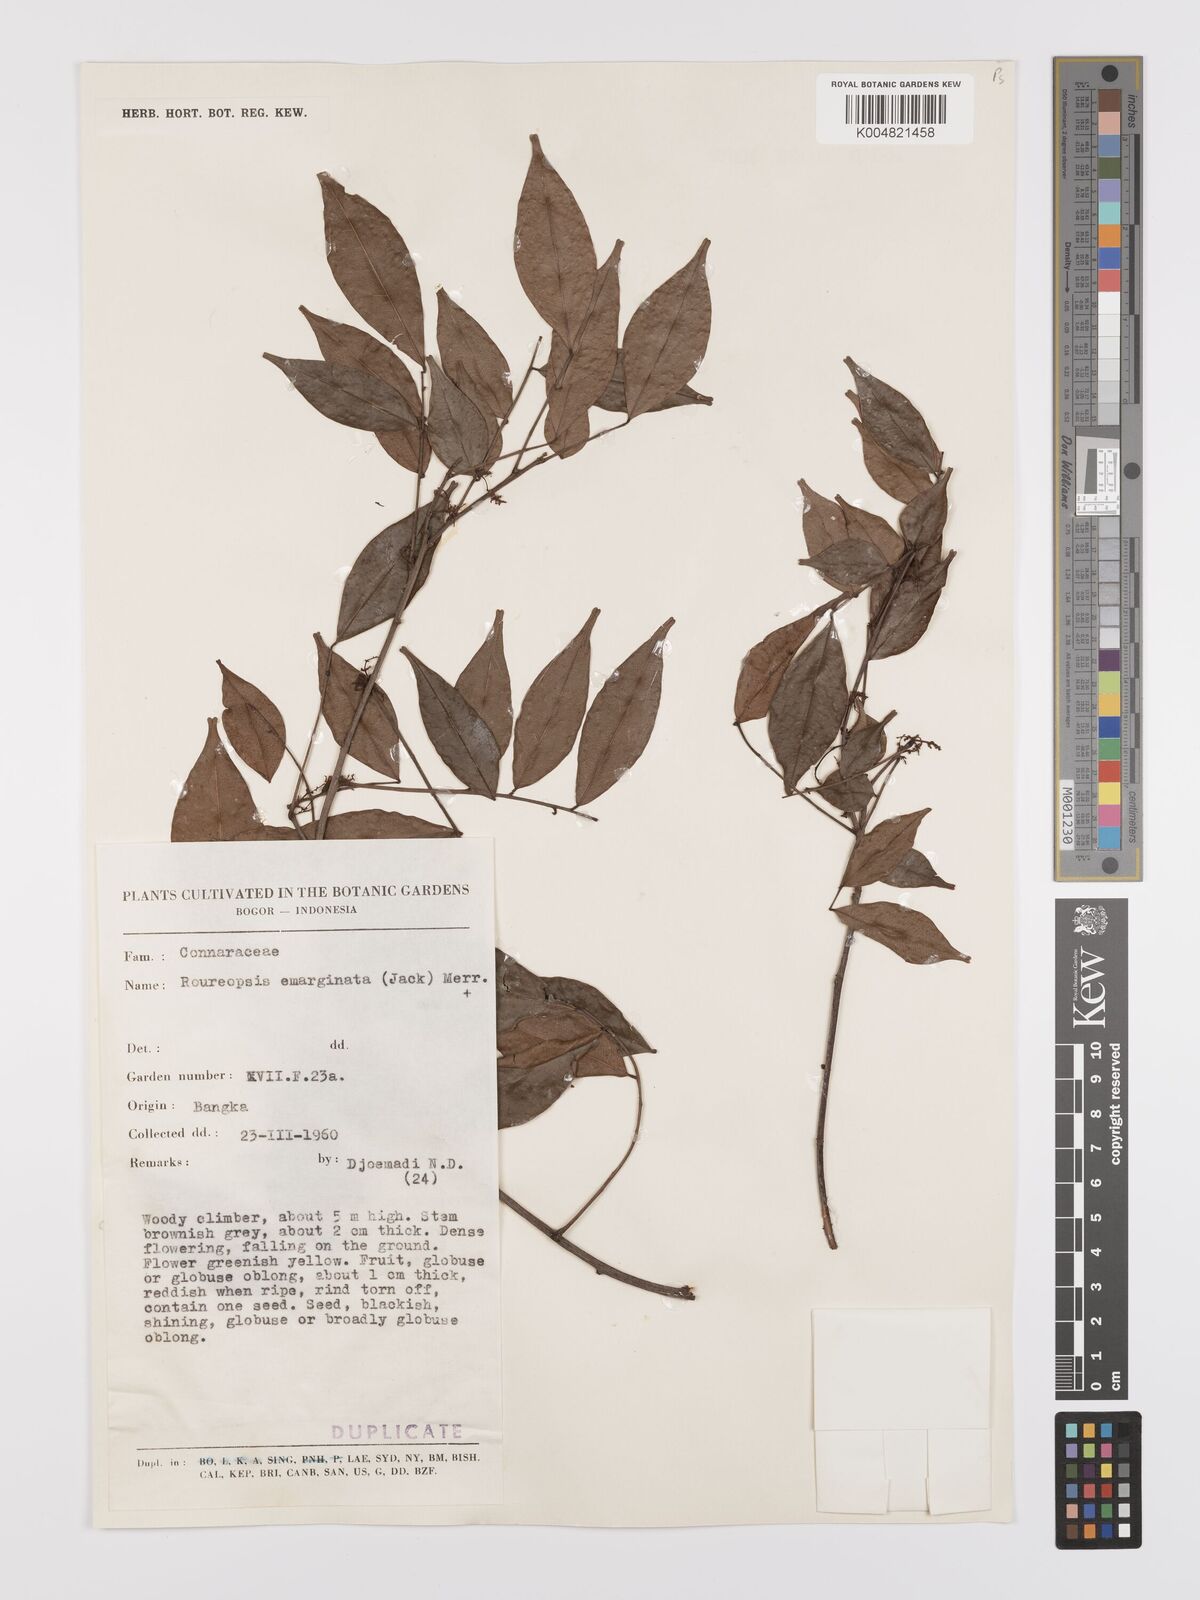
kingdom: Plantae
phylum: Tracheophyta
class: Magnoliopsida
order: Oxalidales
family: Connaraceae
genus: Rourea
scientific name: Rourea emarginata
